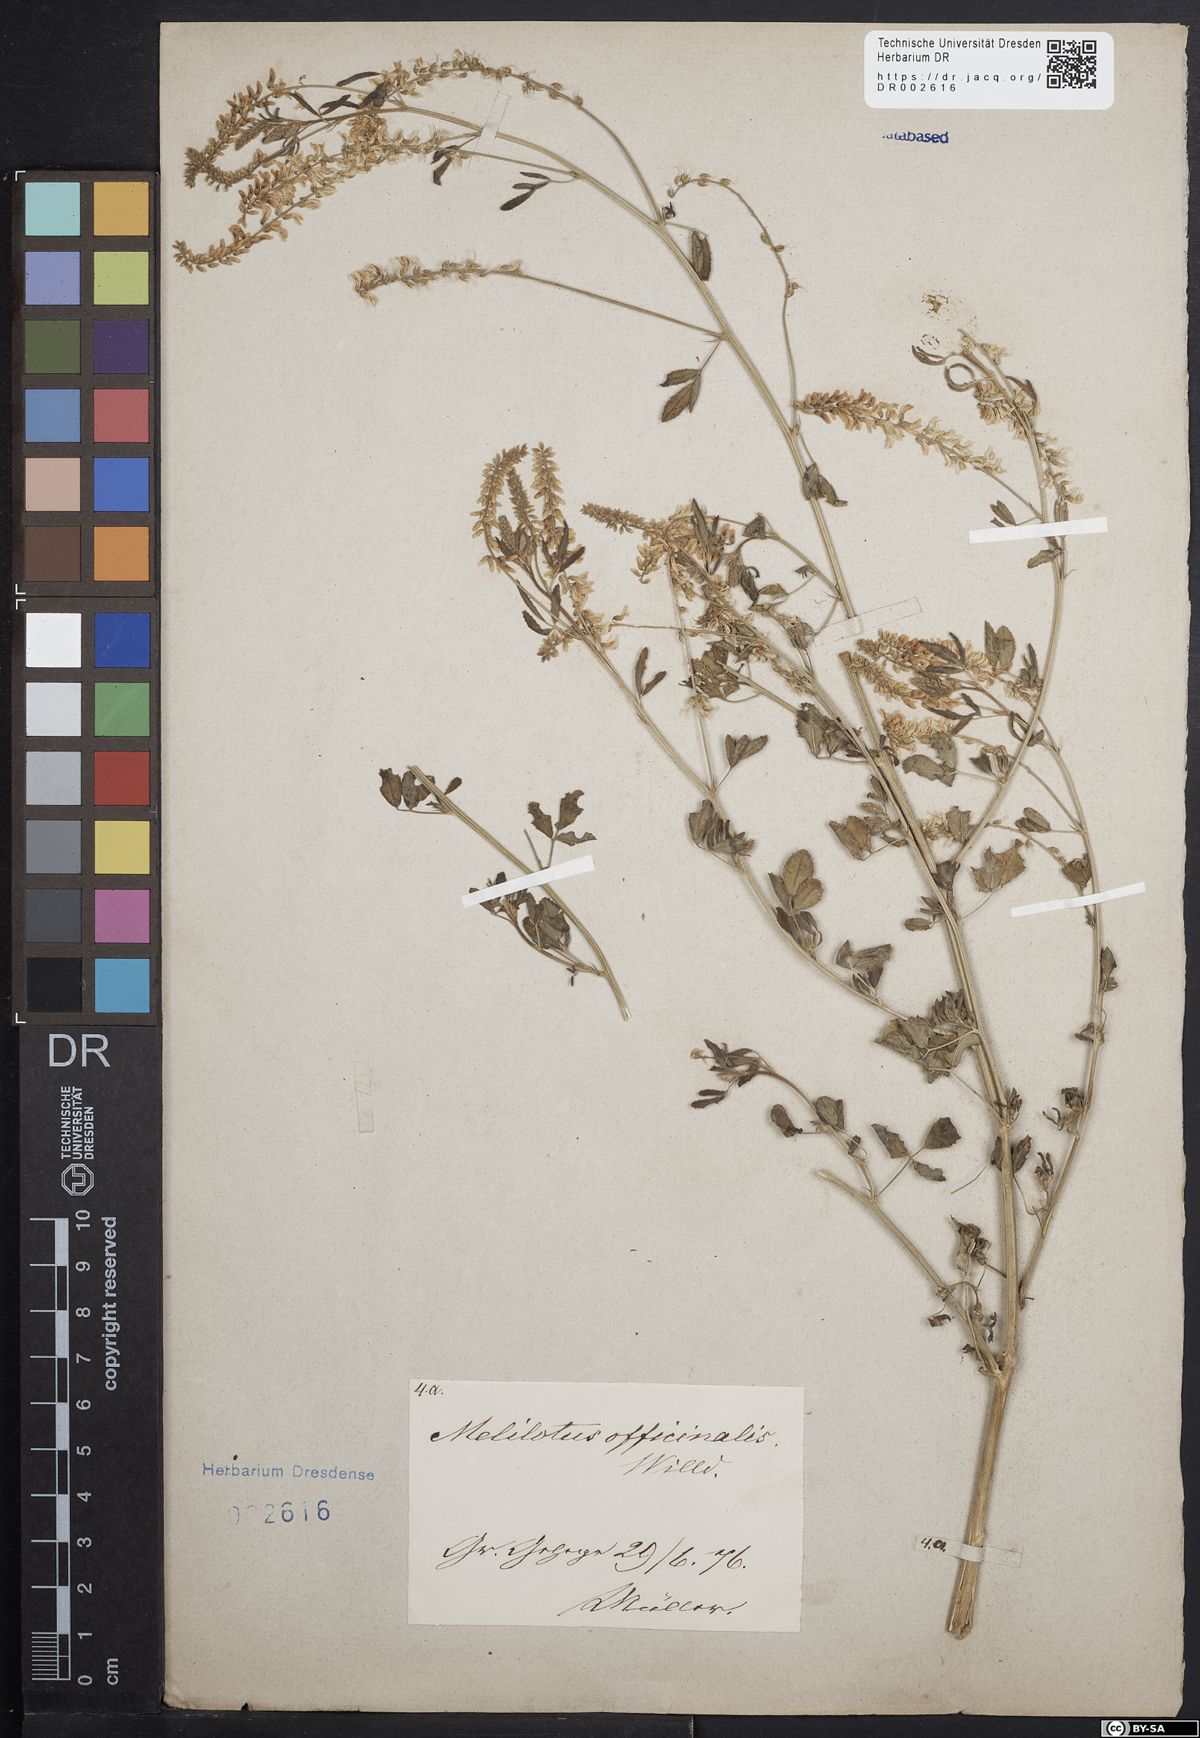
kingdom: Plantae
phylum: Tracheophyta
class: Magnoliopsida
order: Fabales
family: Fabaceae
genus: Melilotus
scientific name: Melilotus officinalis
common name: Sweetclover
